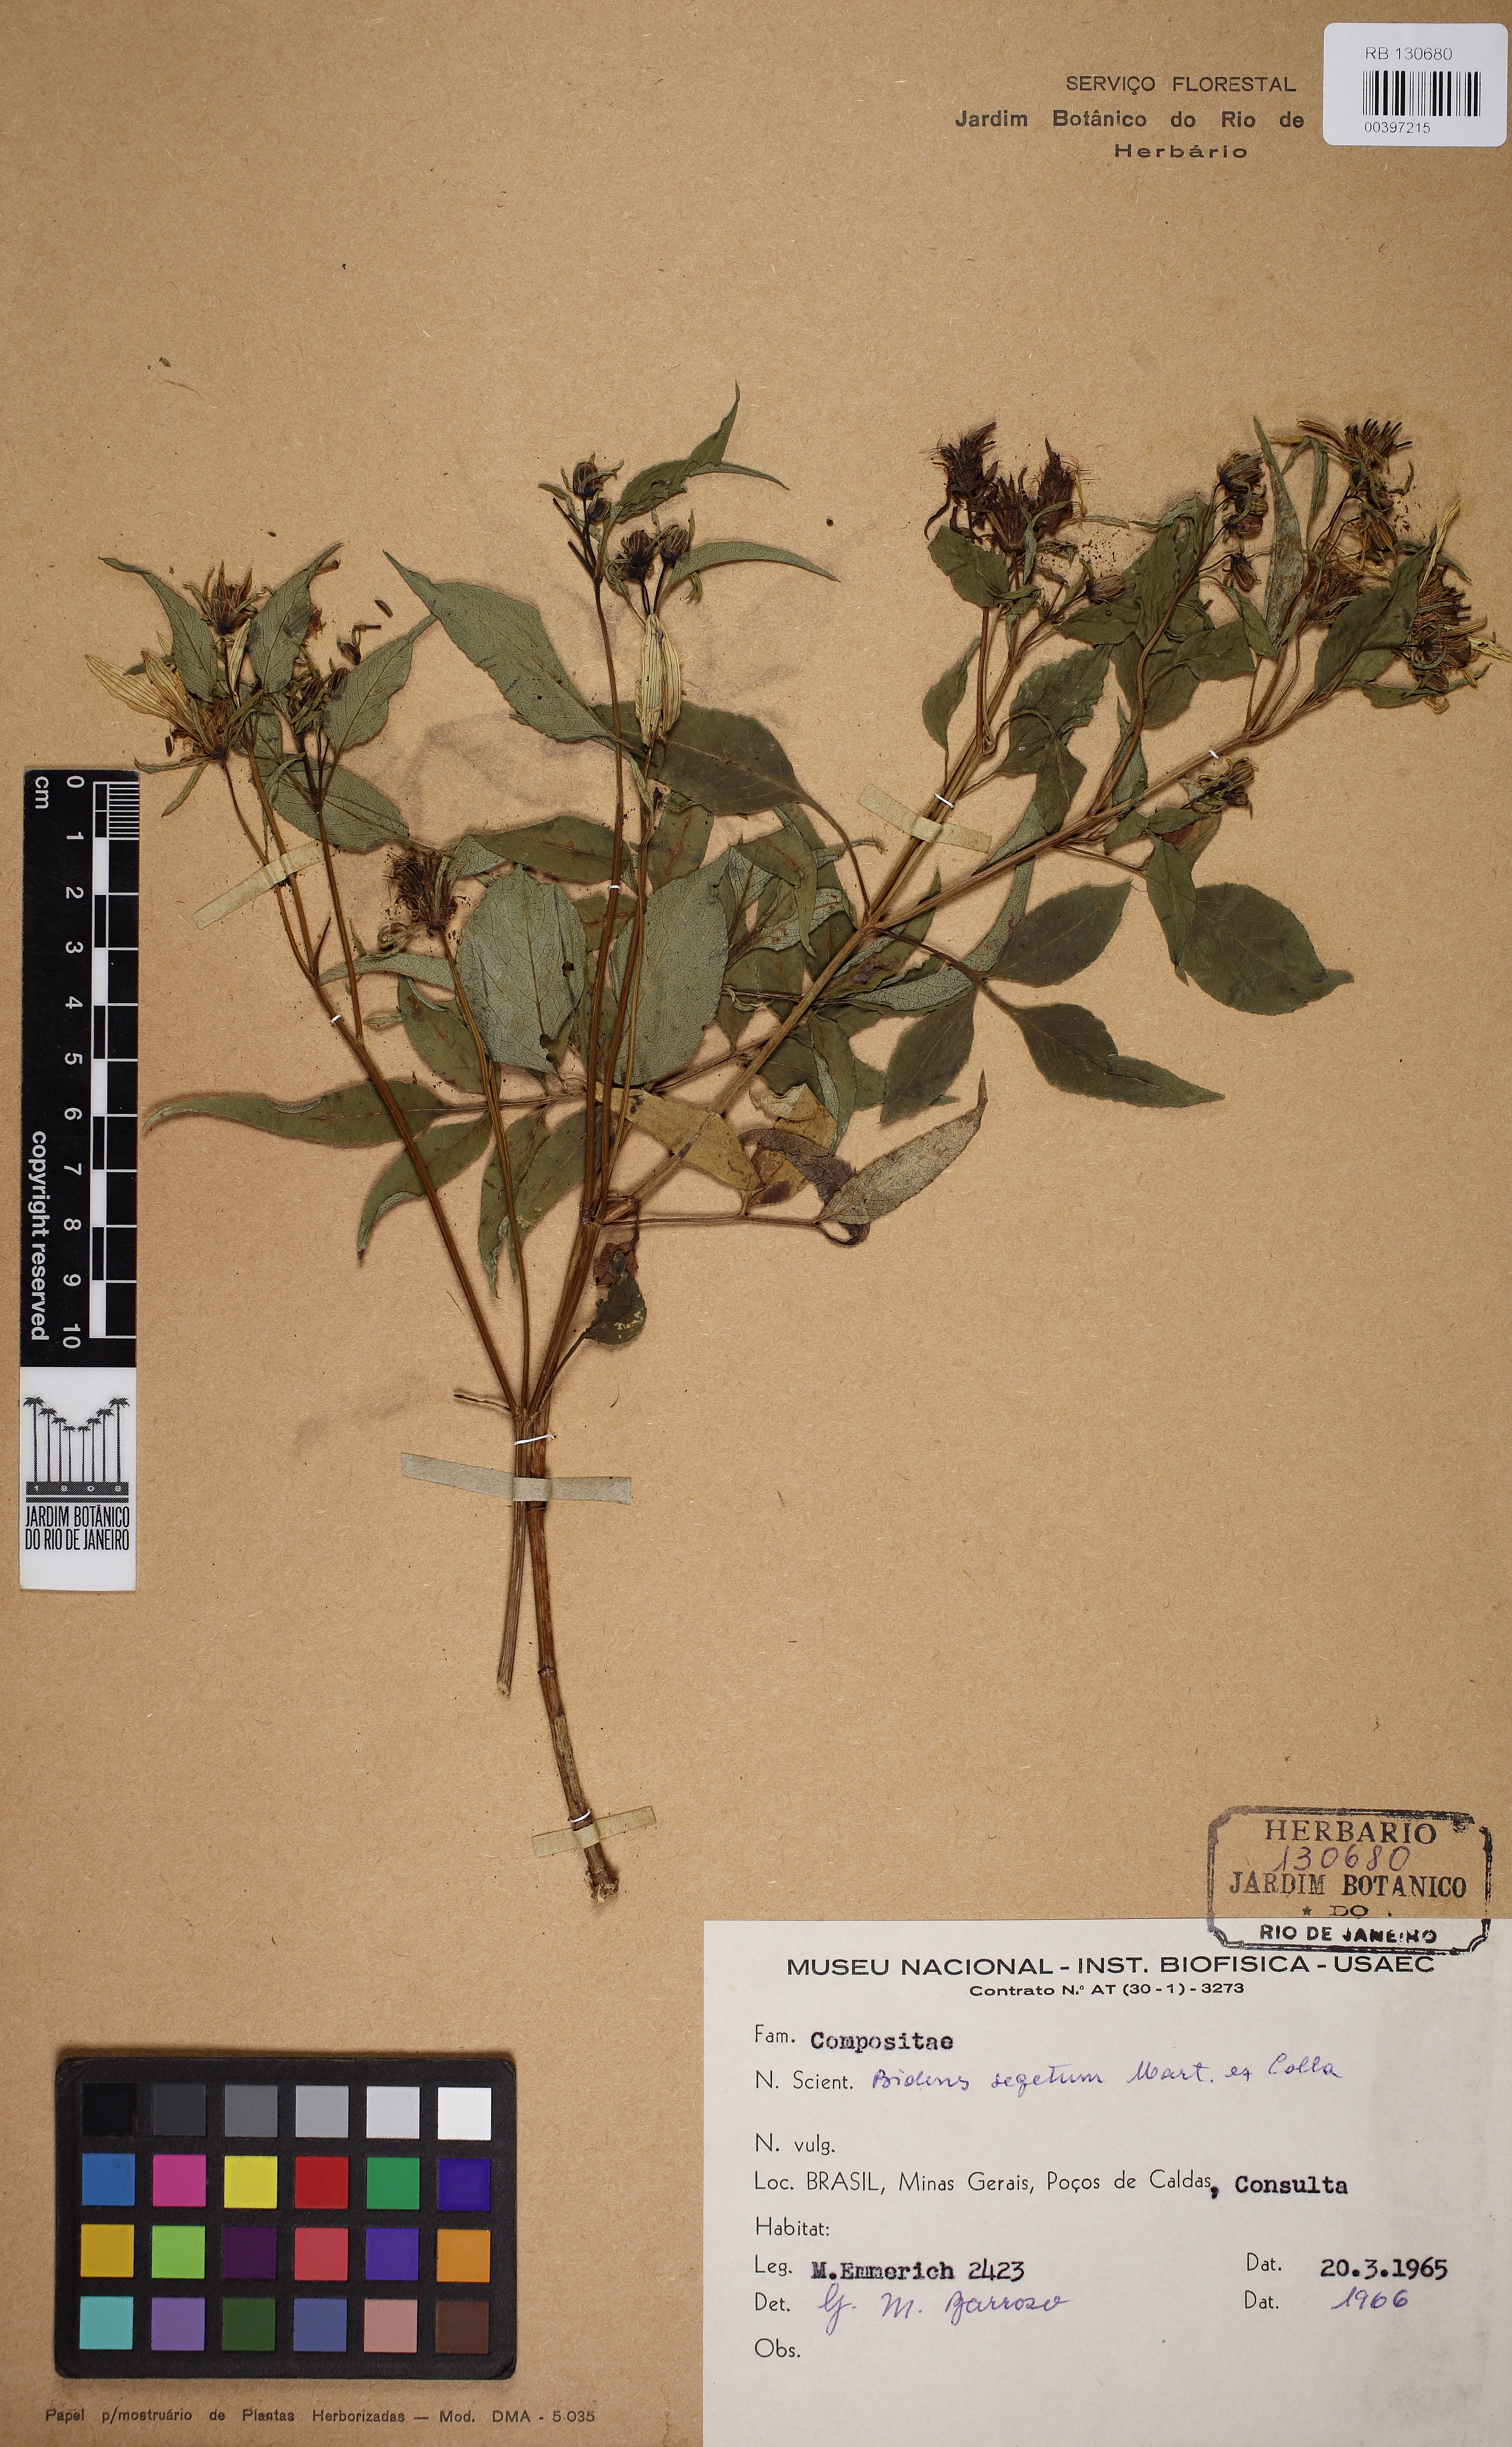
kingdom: Plantae
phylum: Tracheophyta
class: Magnoliopsida
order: Asterales
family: Asteraceae
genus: Bidens
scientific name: Bidens segetum
